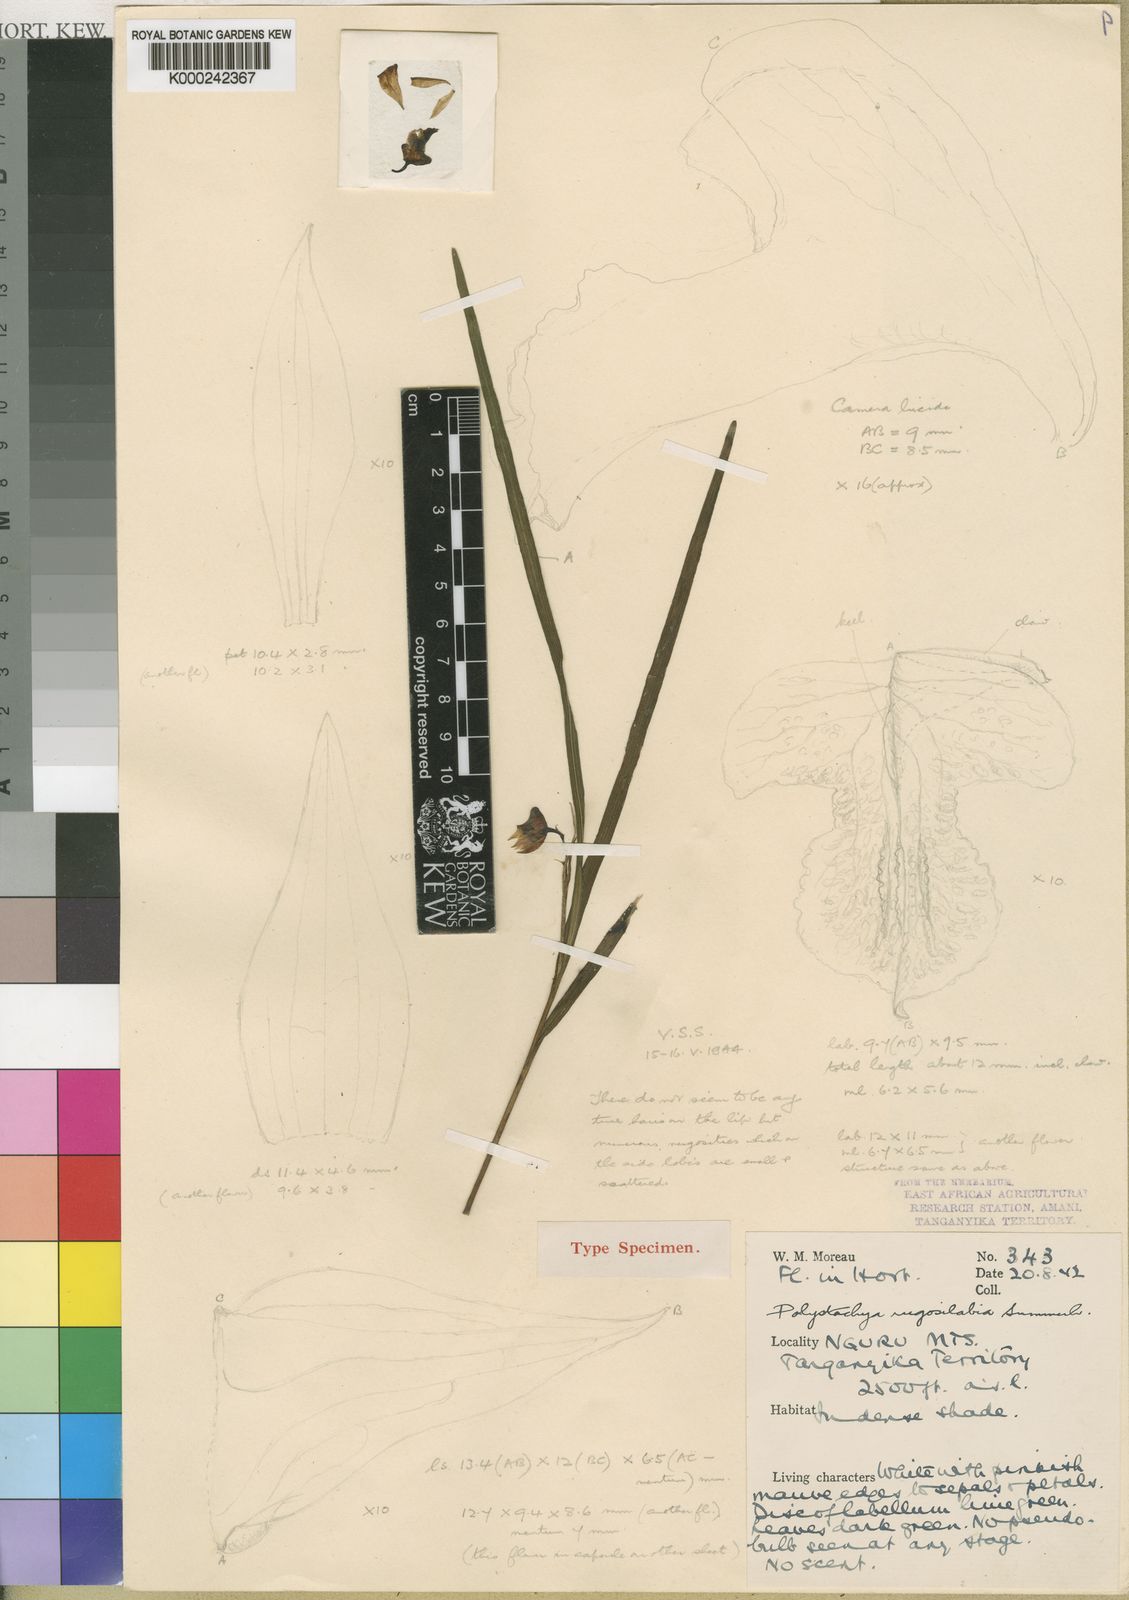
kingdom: Plantae
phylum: Tracheophyta
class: Liliopsida
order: Asparagales
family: Orchidaceae
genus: Polystachya
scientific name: Polystachya rugosilabia
